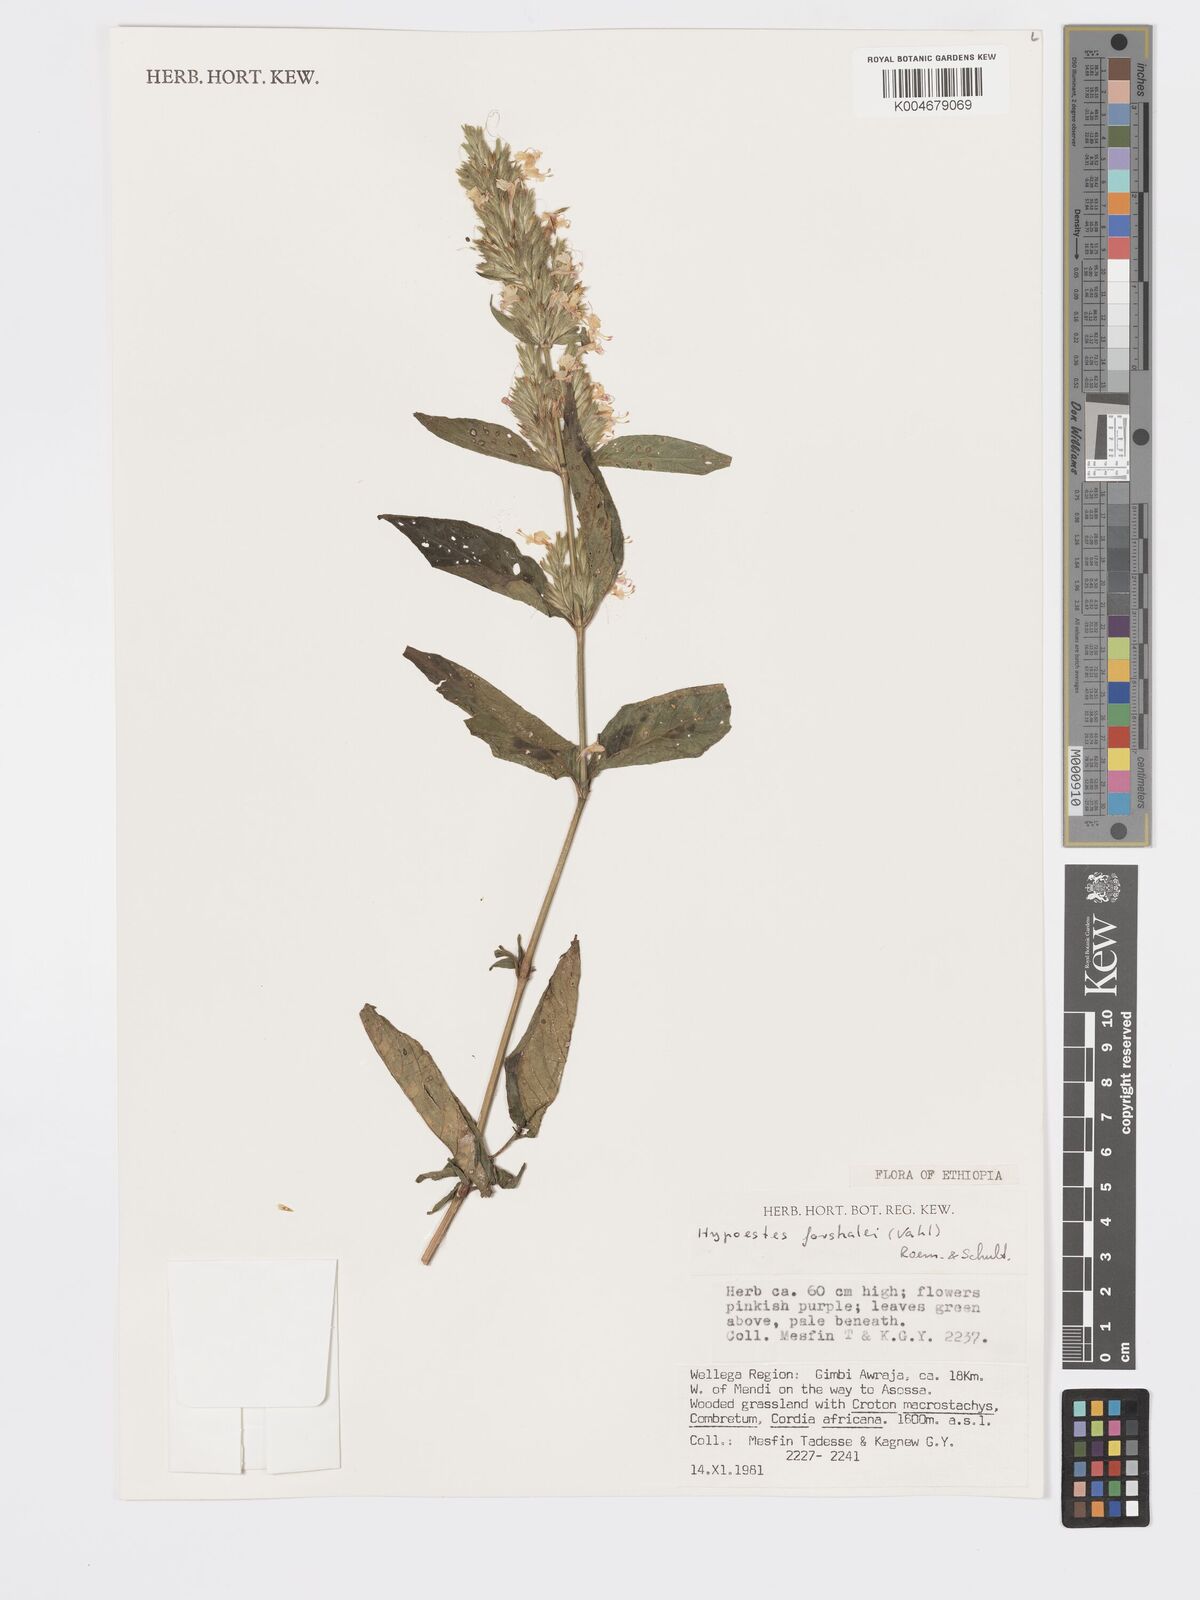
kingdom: Plantae
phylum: Tracheophyta
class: Magnoliopsida
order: Lamiales
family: Acanthaceae
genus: Hypoestes
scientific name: Hypoestes forskaolii
